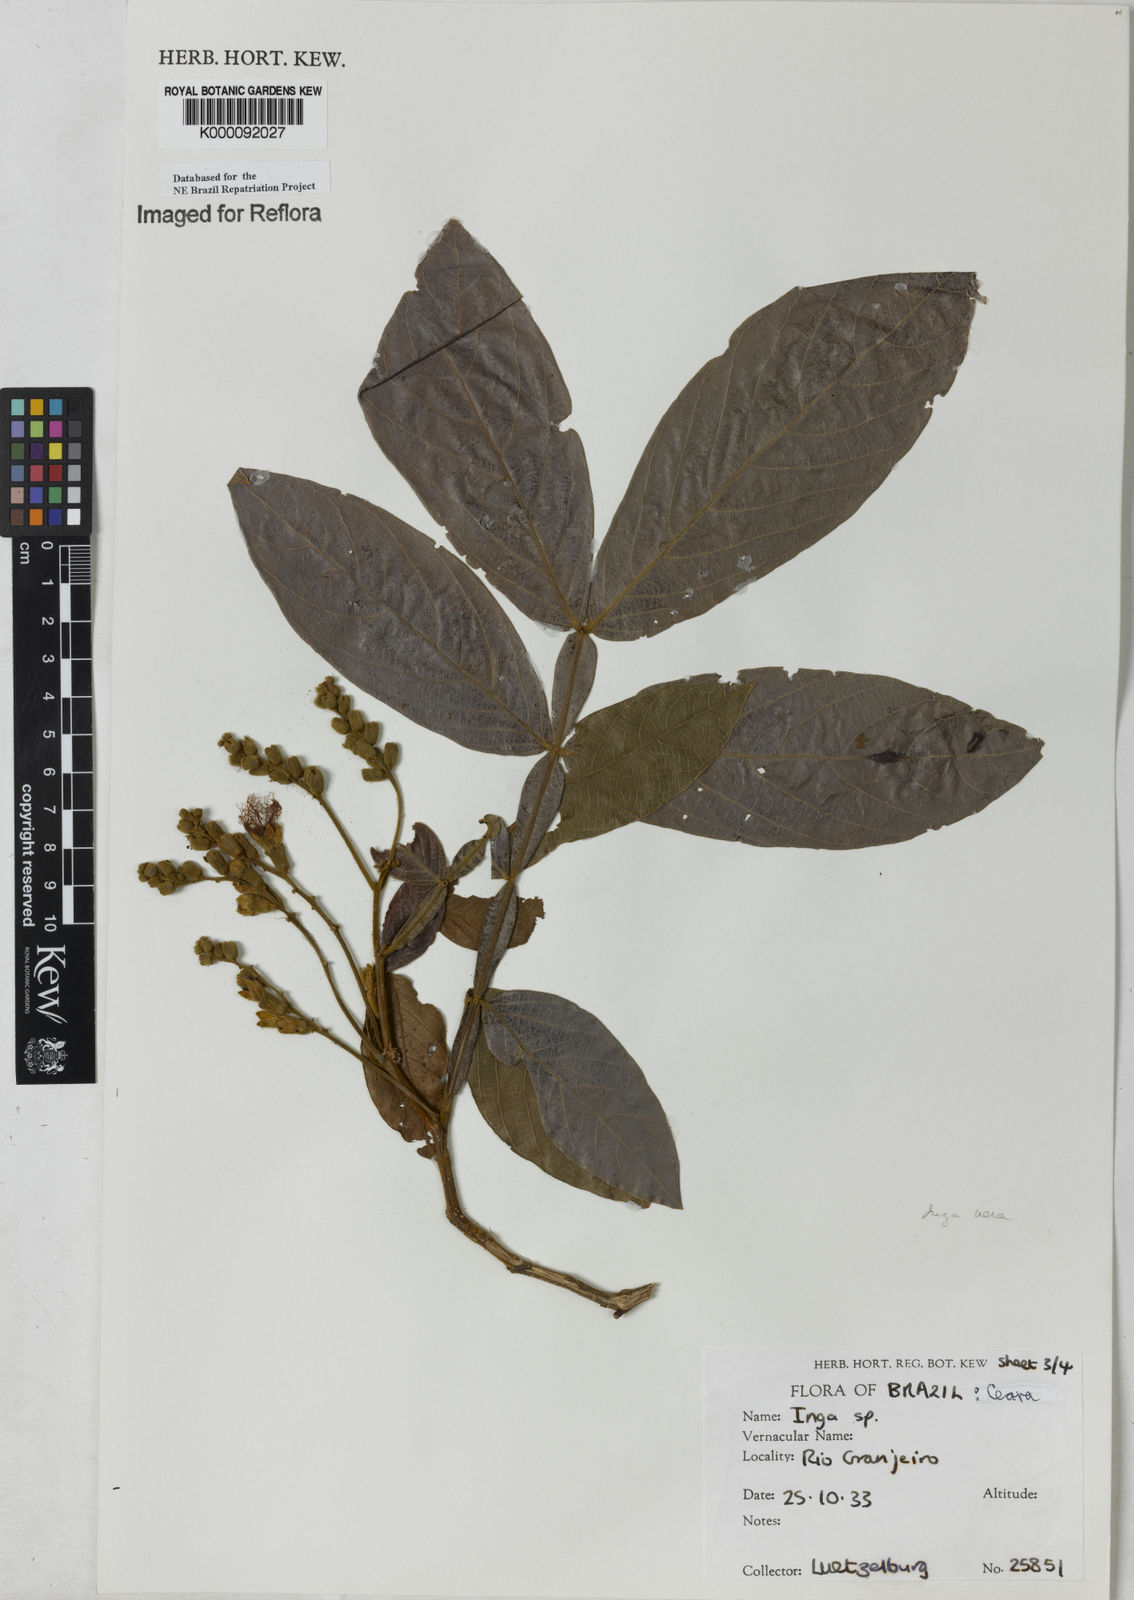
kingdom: Plantae
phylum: Tracheophyta
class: Magnoliopsida
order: Fabales
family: Fabaceae
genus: Inga
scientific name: Inga affinis
